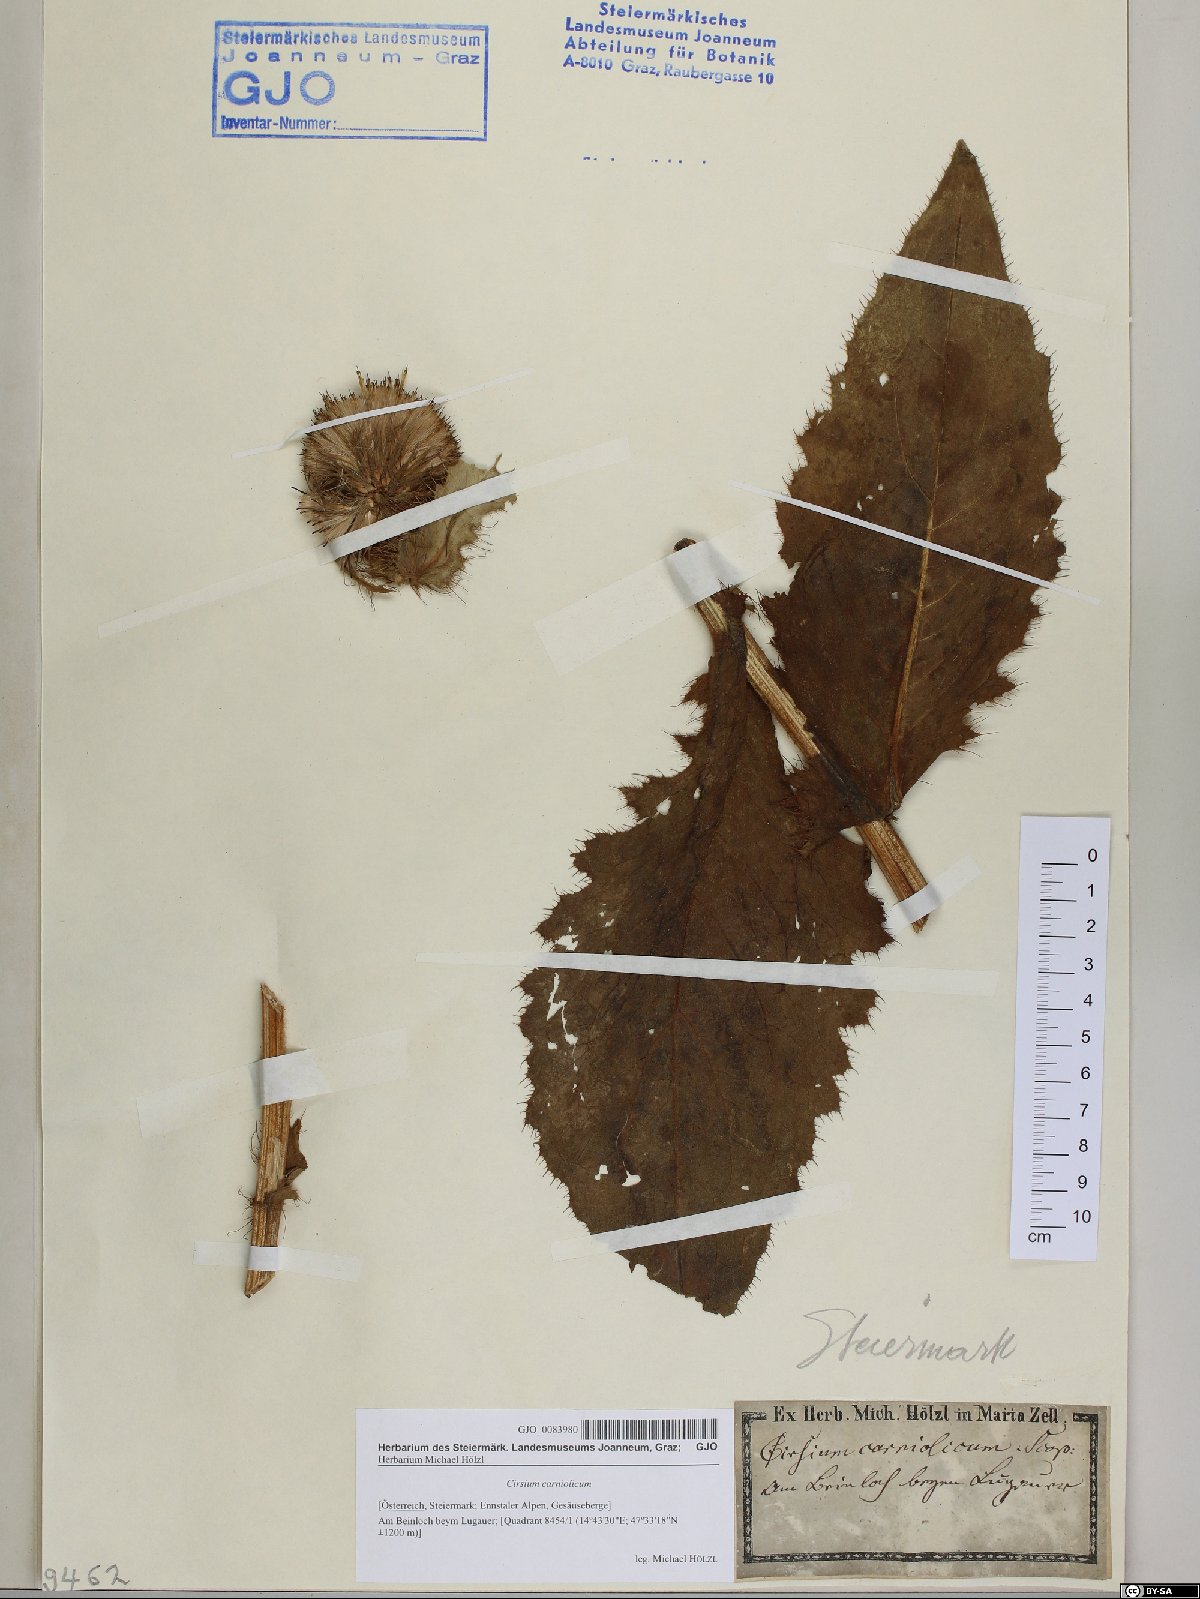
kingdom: Plantae
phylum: Tracheophyta
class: Magnoliopsida
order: Asterales
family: Asteraceae
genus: Cirsium
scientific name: Cirsium carniolicum
